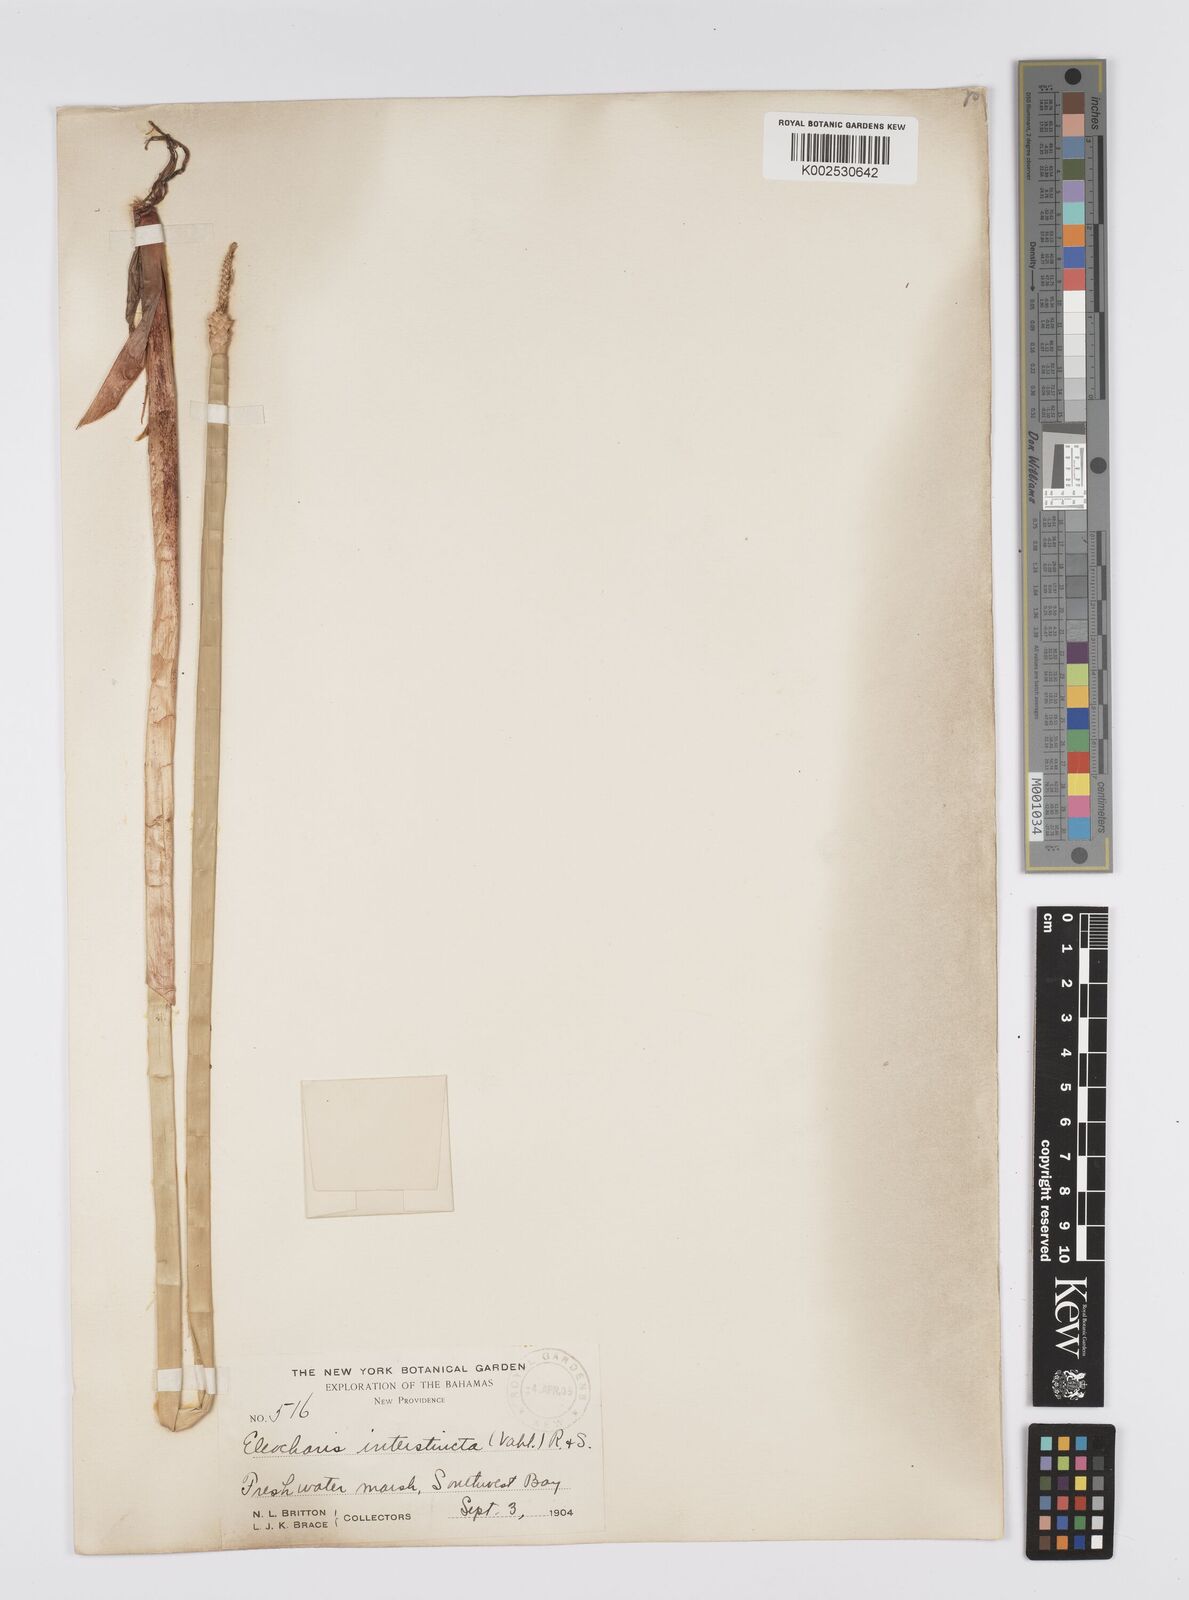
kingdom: Plantae
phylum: Tracheophyta
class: Liliopsida
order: Poales
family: Cyperaceae
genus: Eleocharis
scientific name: Eleocharis interstincta
